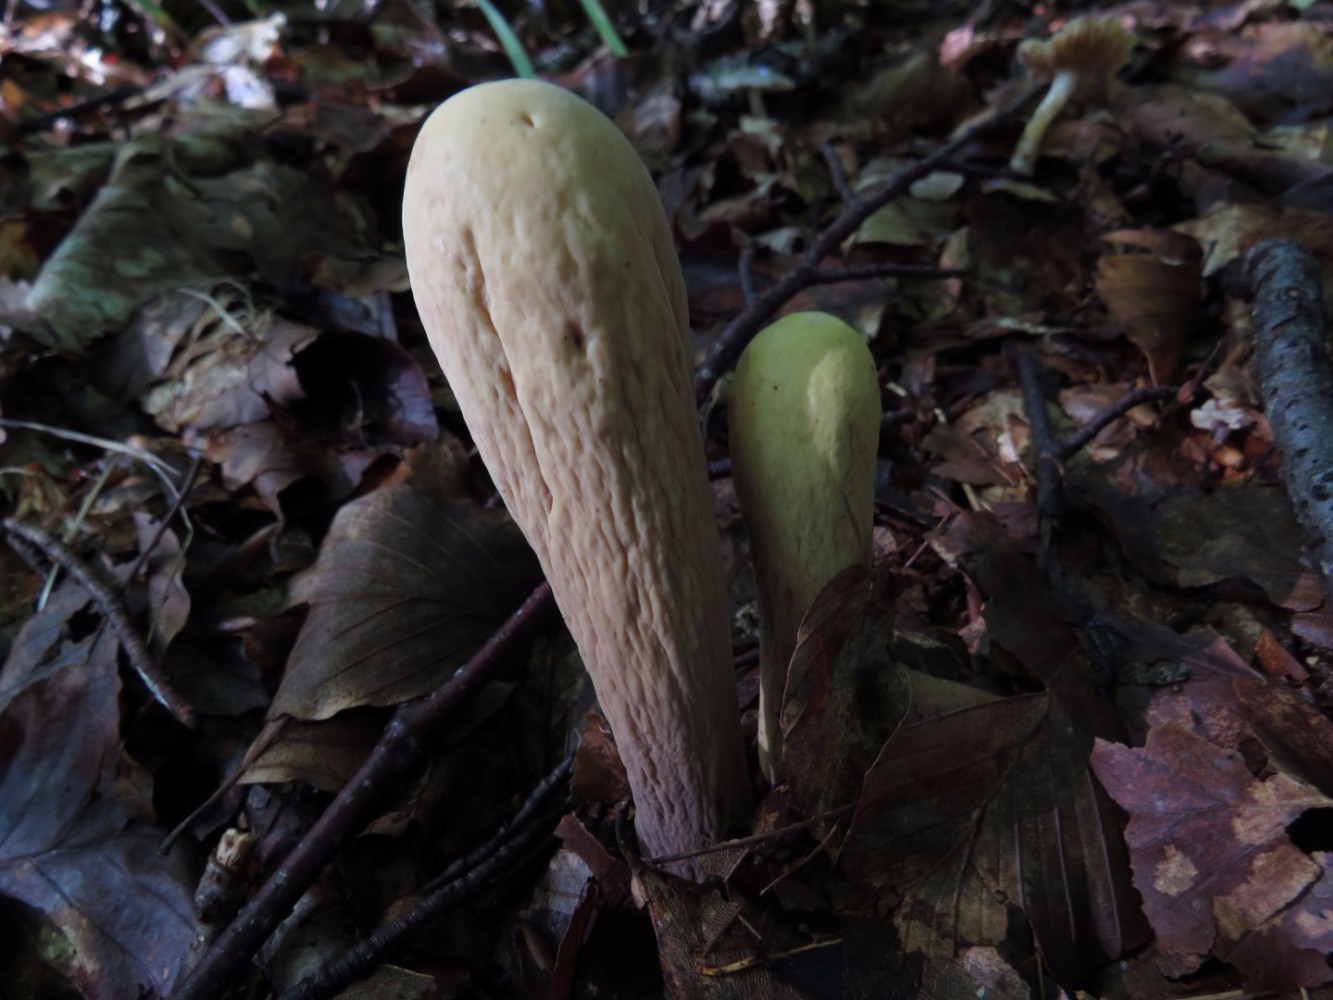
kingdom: Fungi
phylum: Basidiomycota
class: Agaricomycetes
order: Gomphales
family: Clavariadelphaceae
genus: Clavariadelphus
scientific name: Clavariadelphus pistillaris
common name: herkules-kæmpekølle
